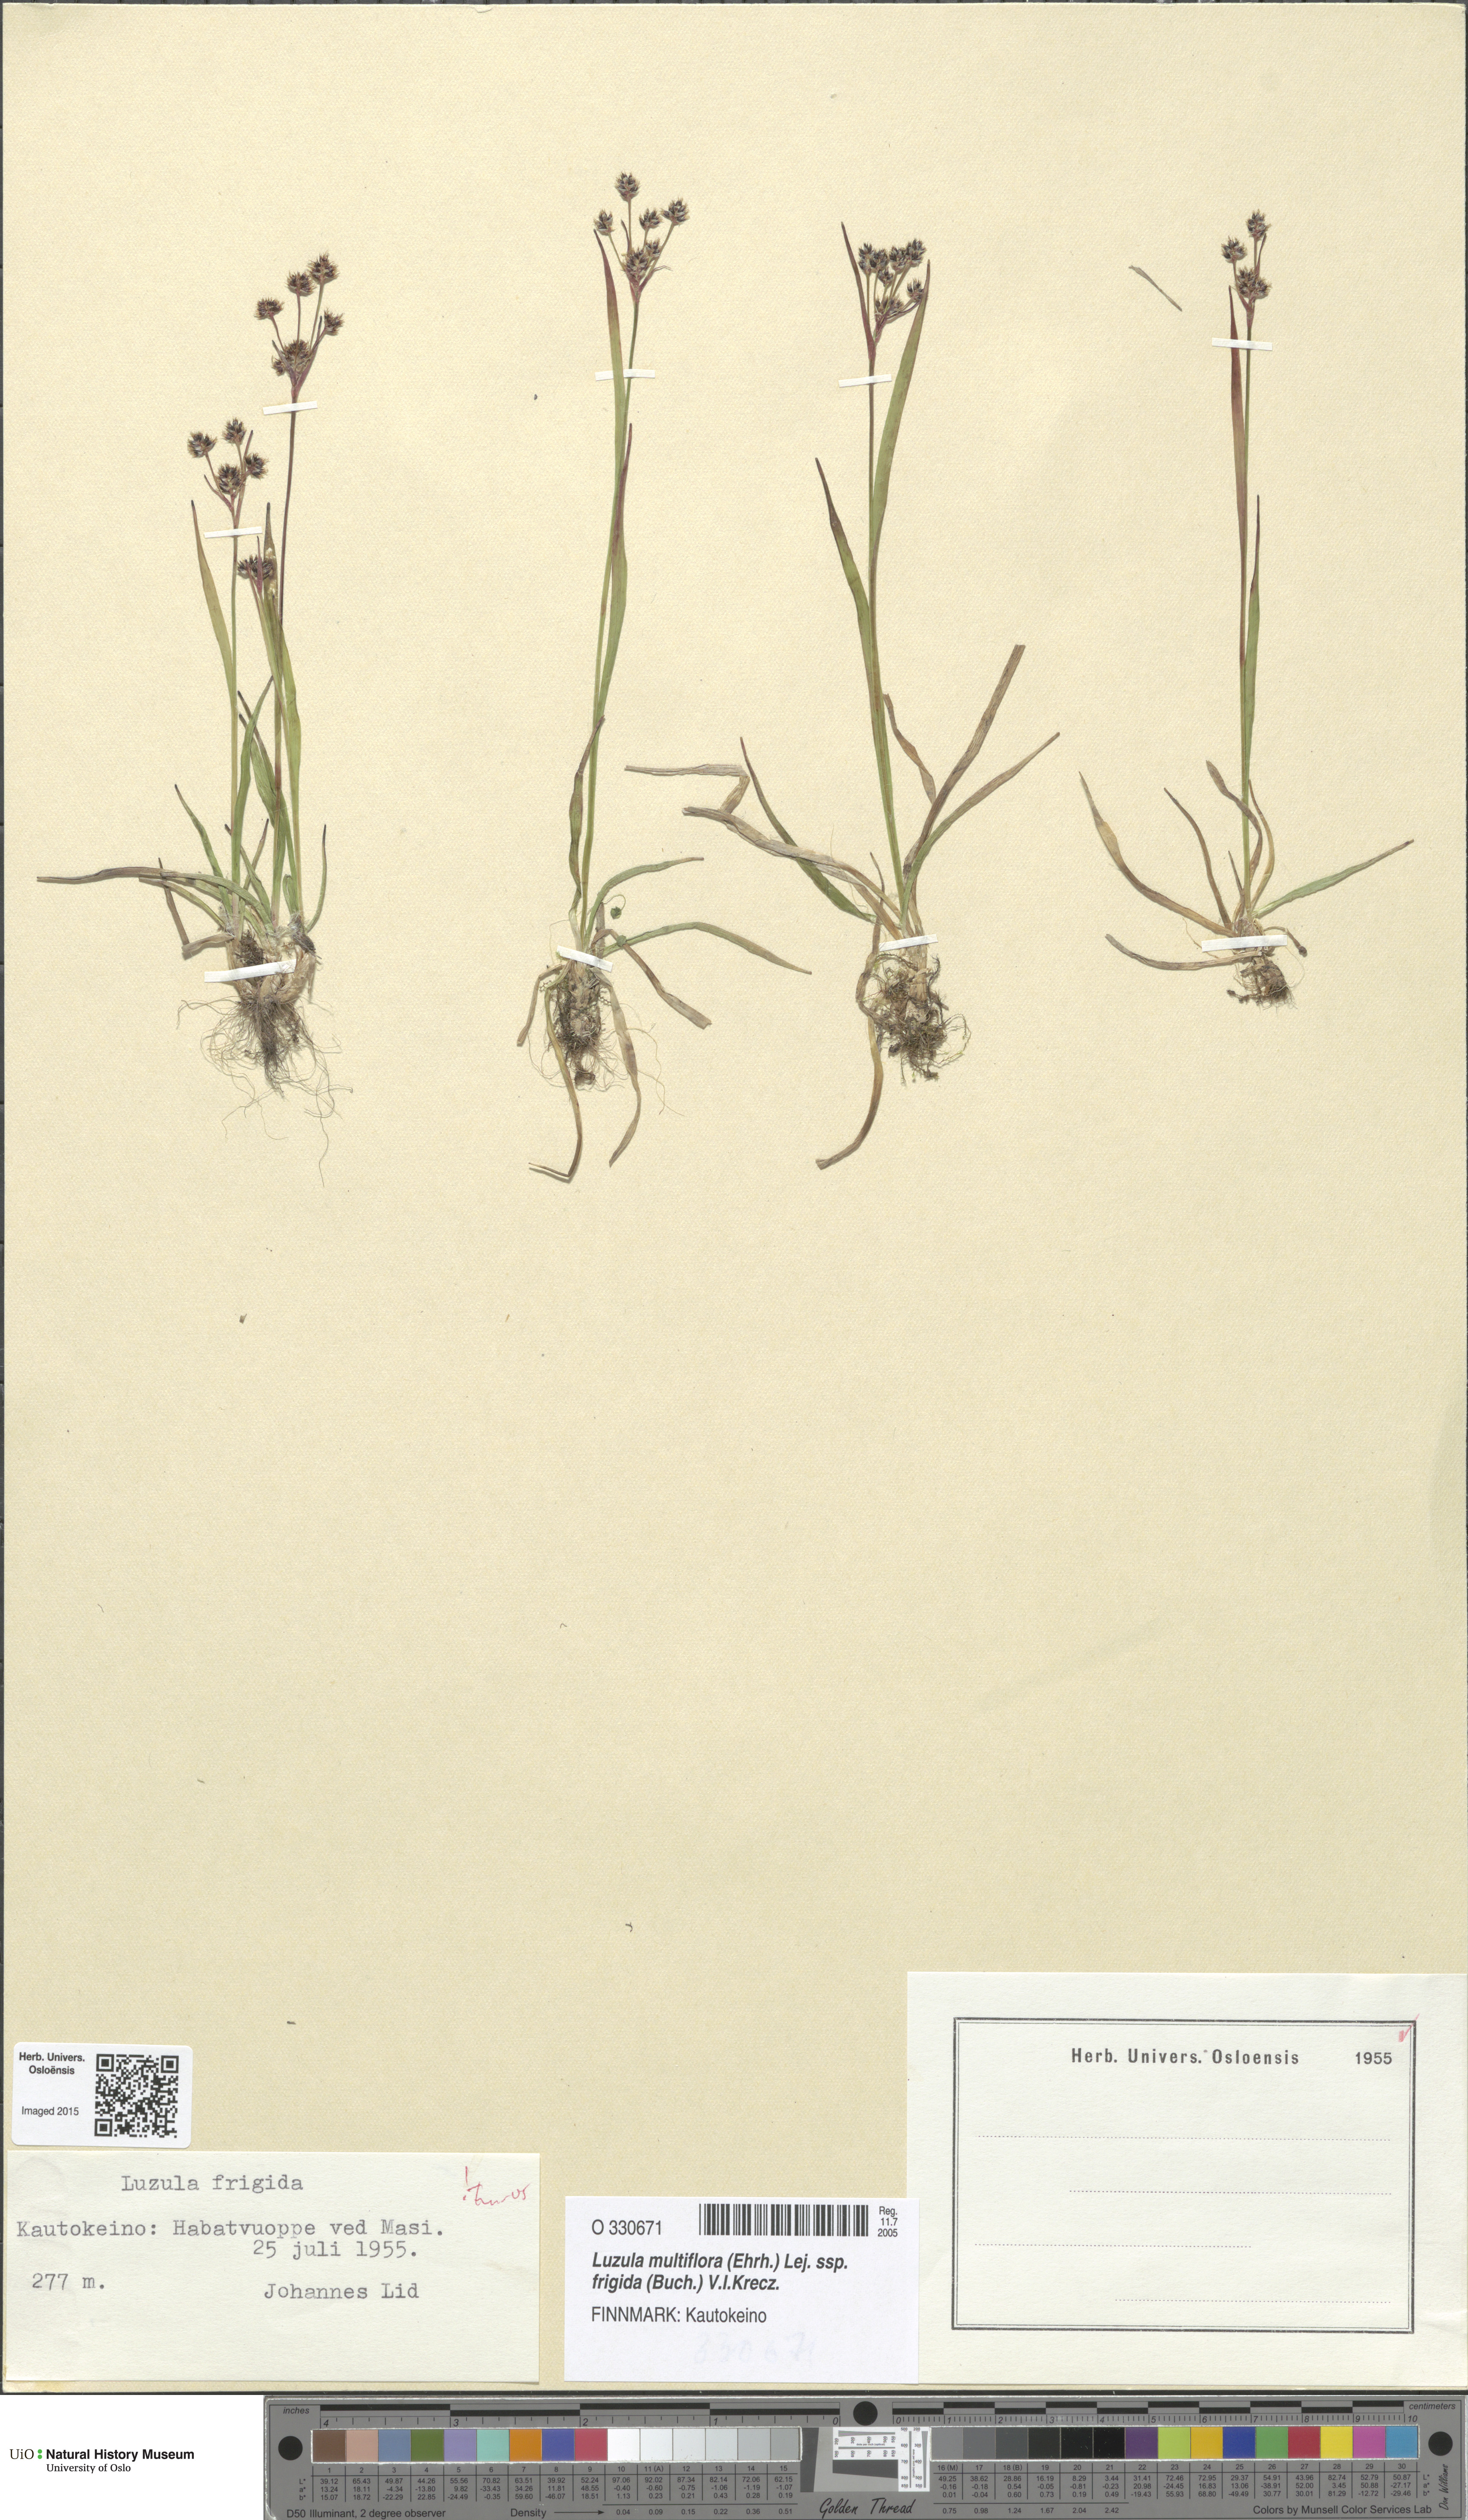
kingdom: Plantae
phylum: Tracheophyta
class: Liliopsida
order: Poales
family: Juncaceae
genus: Luzula
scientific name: Luzula multiflora
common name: Heath wood-rush
